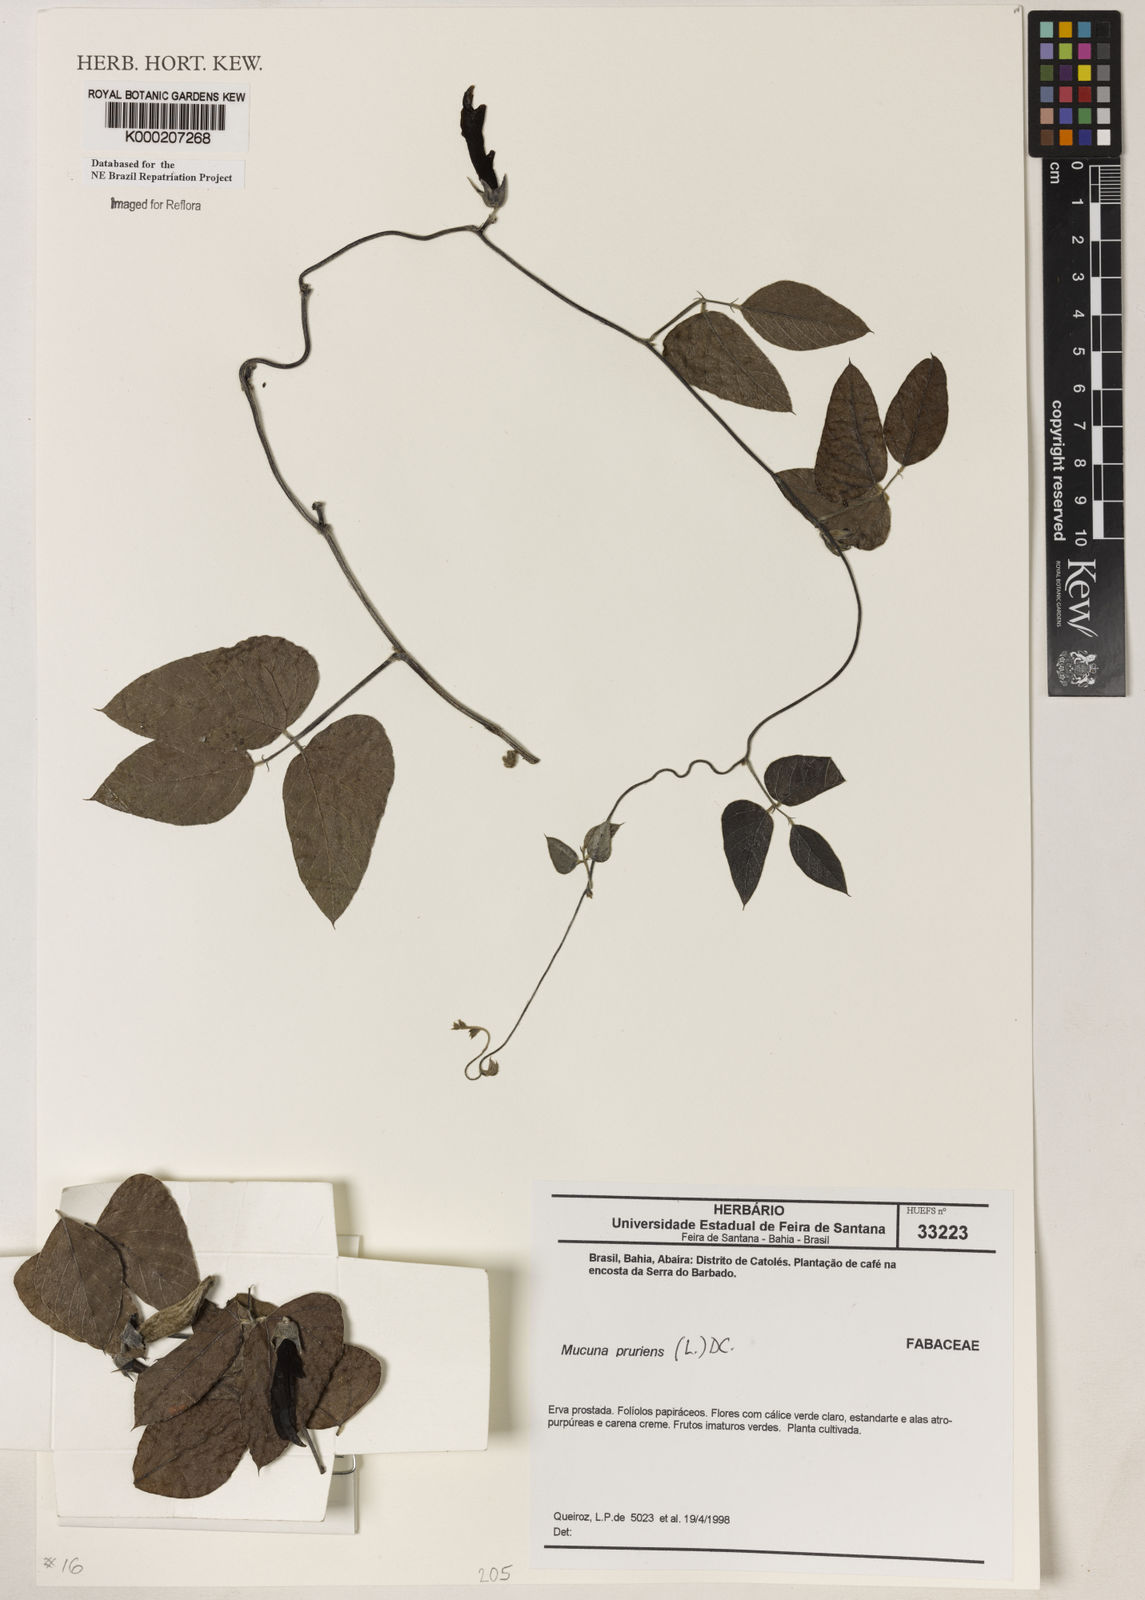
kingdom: Plantae
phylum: Tracheophyta
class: Magnoliopsida
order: Fabales
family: Fabaceae
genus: Mucuna
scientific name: Mucuna pruriens
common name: Cow-itch
